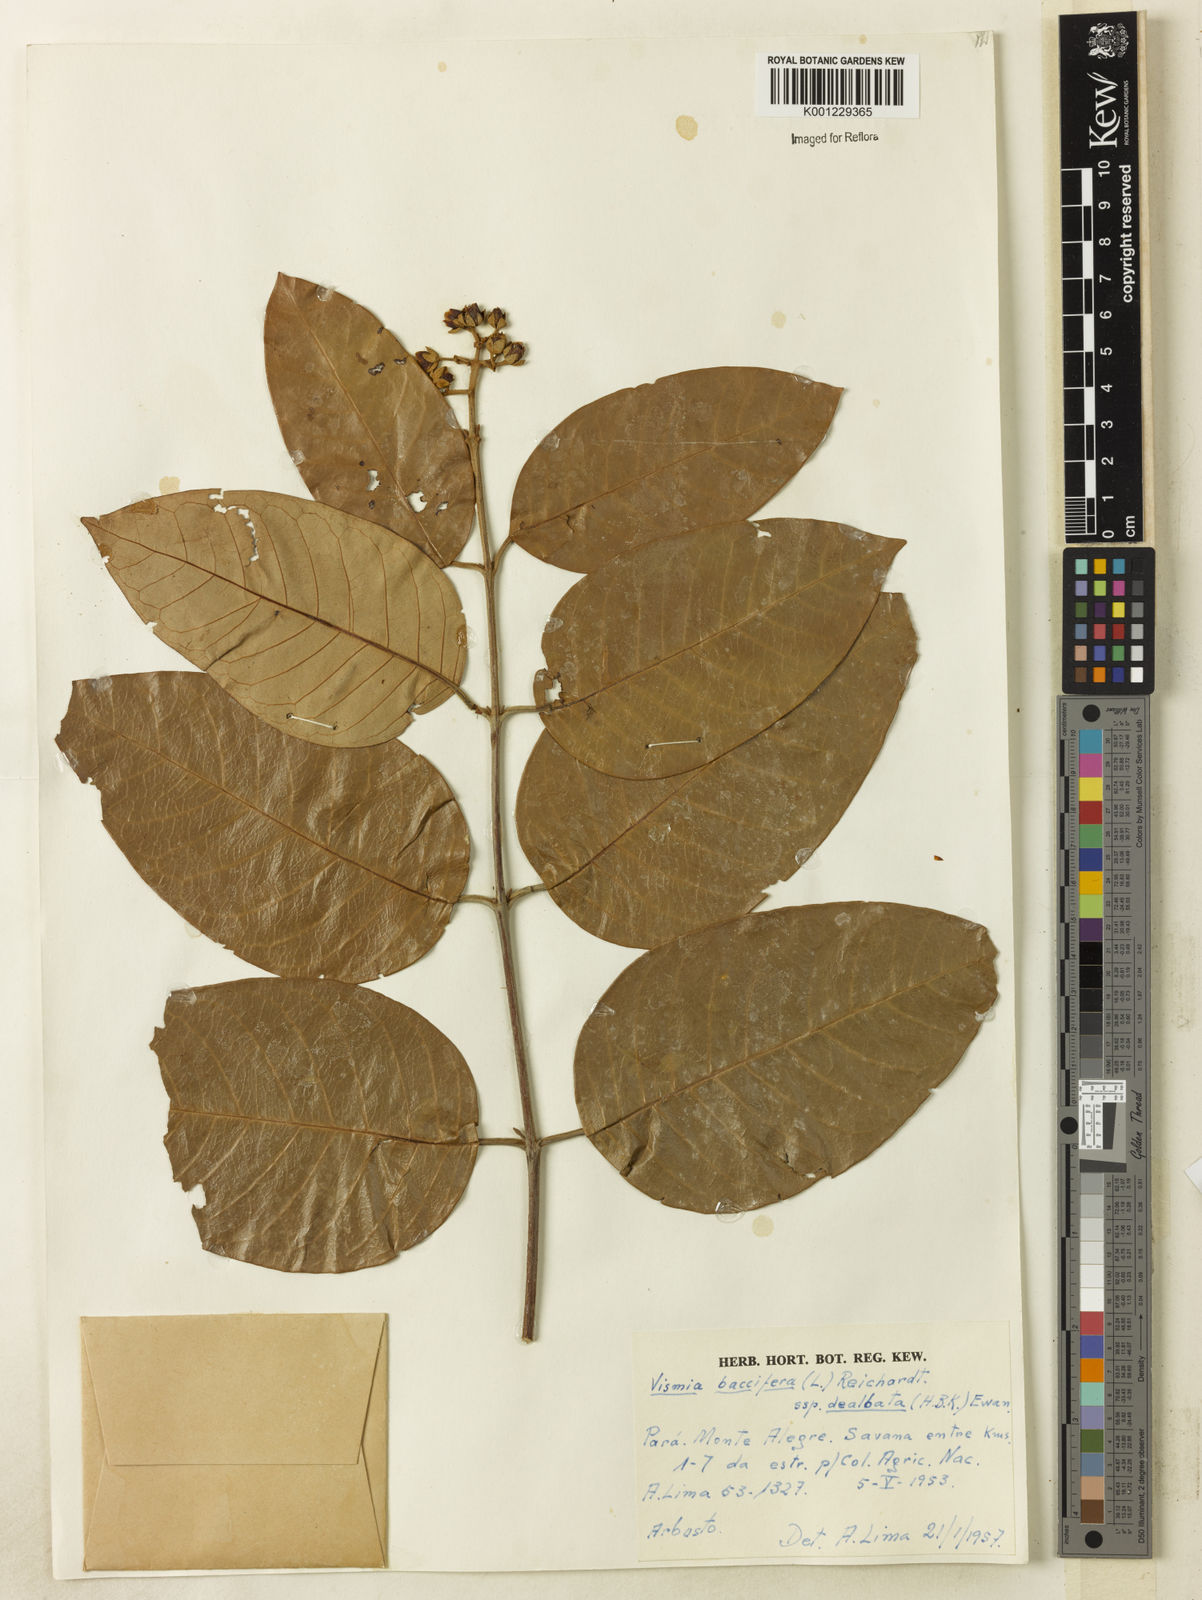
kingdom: Plantae
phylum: Tracheophyta
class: Magnoliopsida
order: Malpighiales
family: Hypericaceae
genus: Vismia
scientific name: Vismia gracilis
